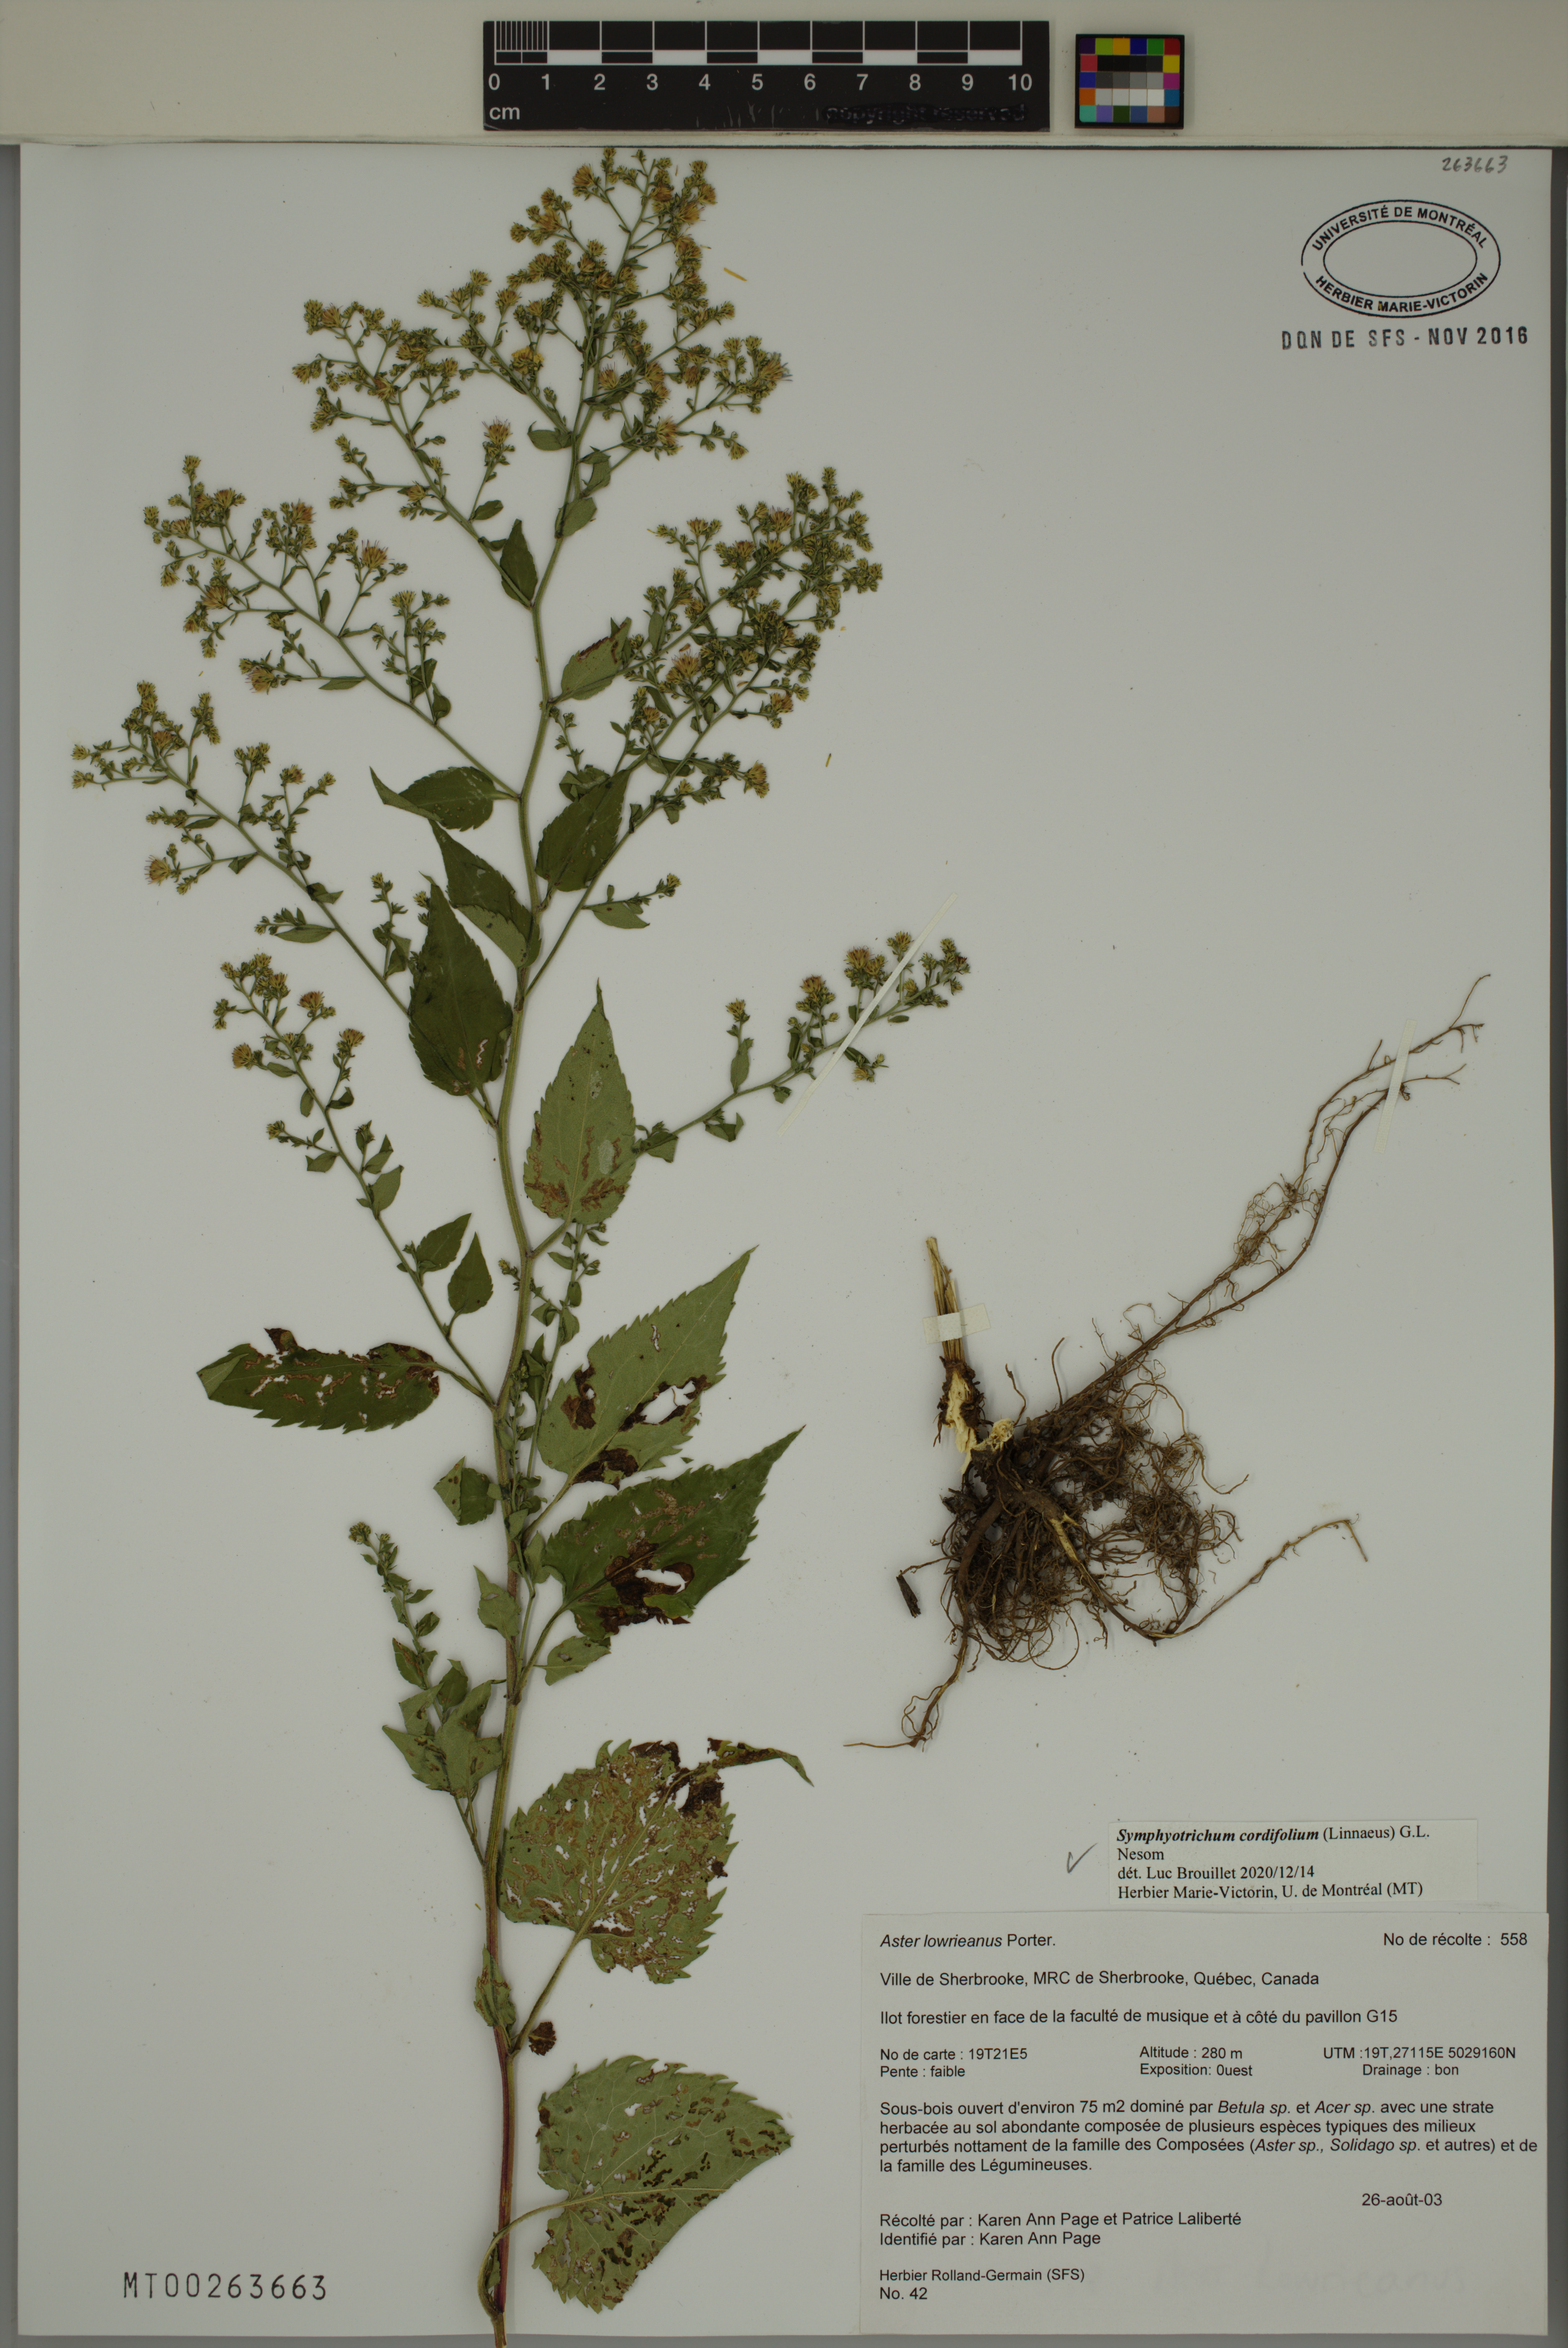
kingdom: Plantae
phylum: Tracheophyta
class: Magnoliopsida
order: Asterales
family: Asteraceae
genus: Symphyotrichum
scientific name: Symphyotrichum cordifolium
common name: Beeweed
